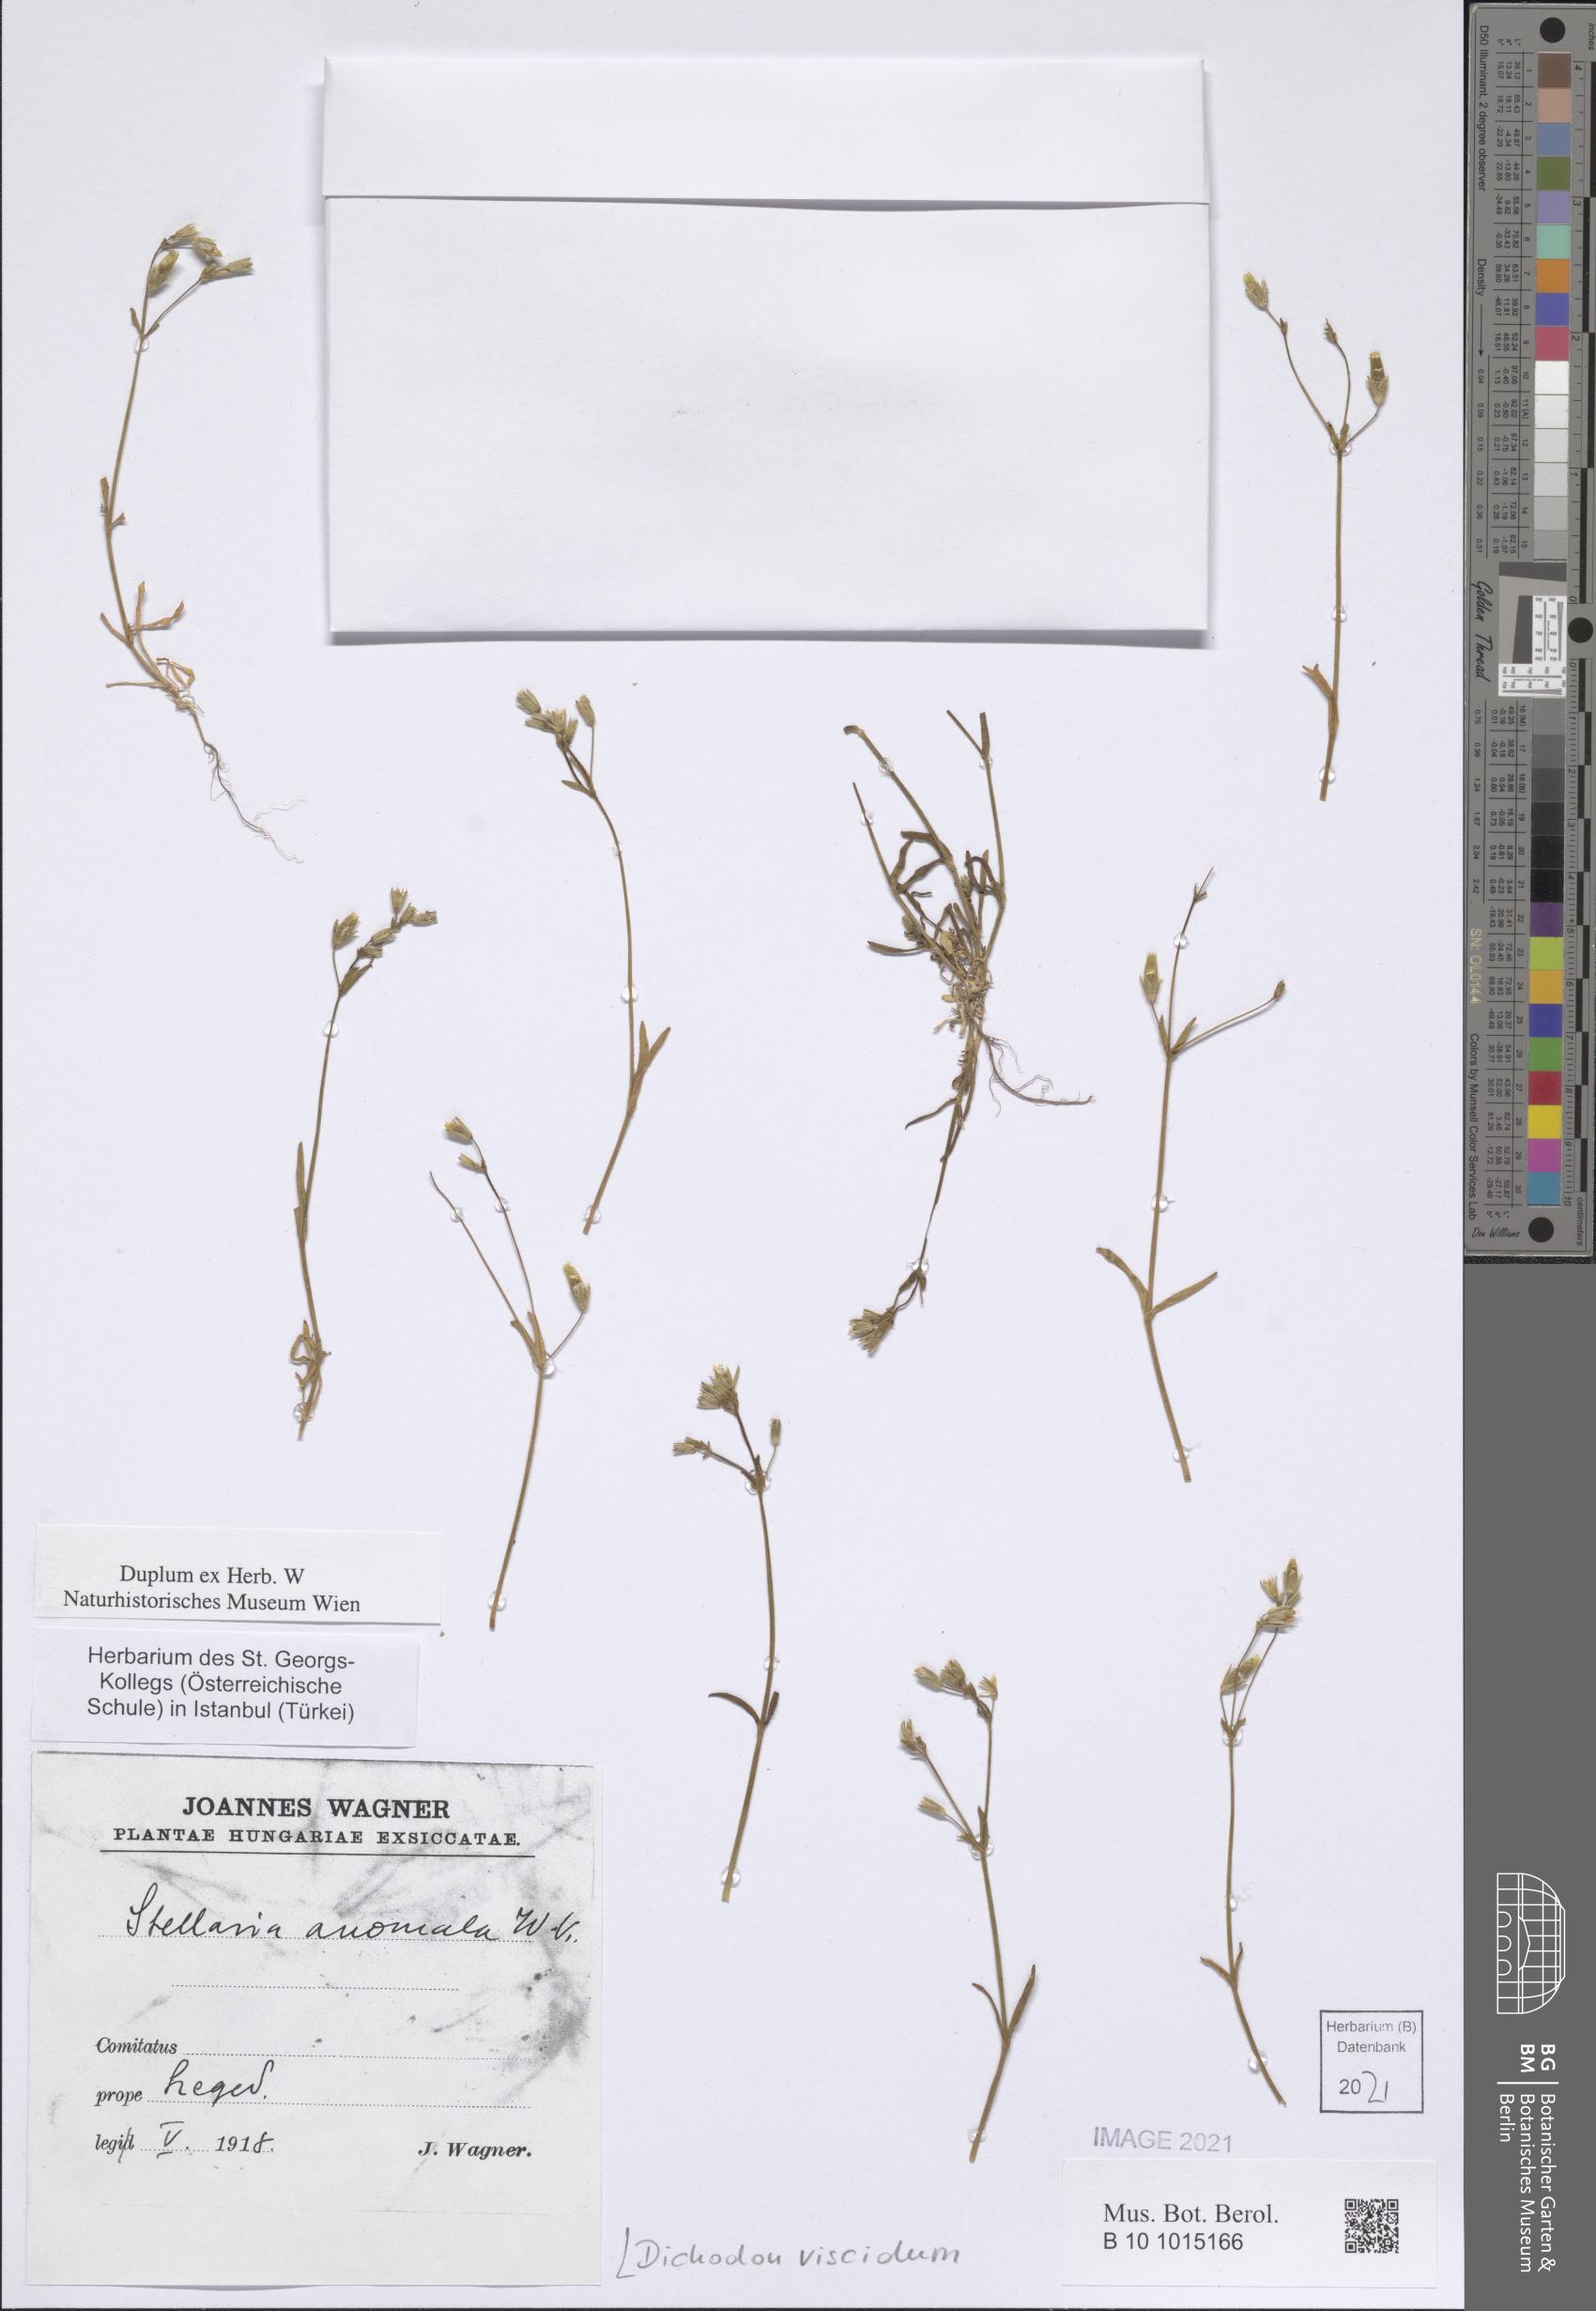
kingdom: Plantae
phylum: Tracheophyta
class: Magnoliopsida
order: Caryophyllales
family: Caryophyllaceae
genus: Dichodon
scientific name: Dichodon viscidum
